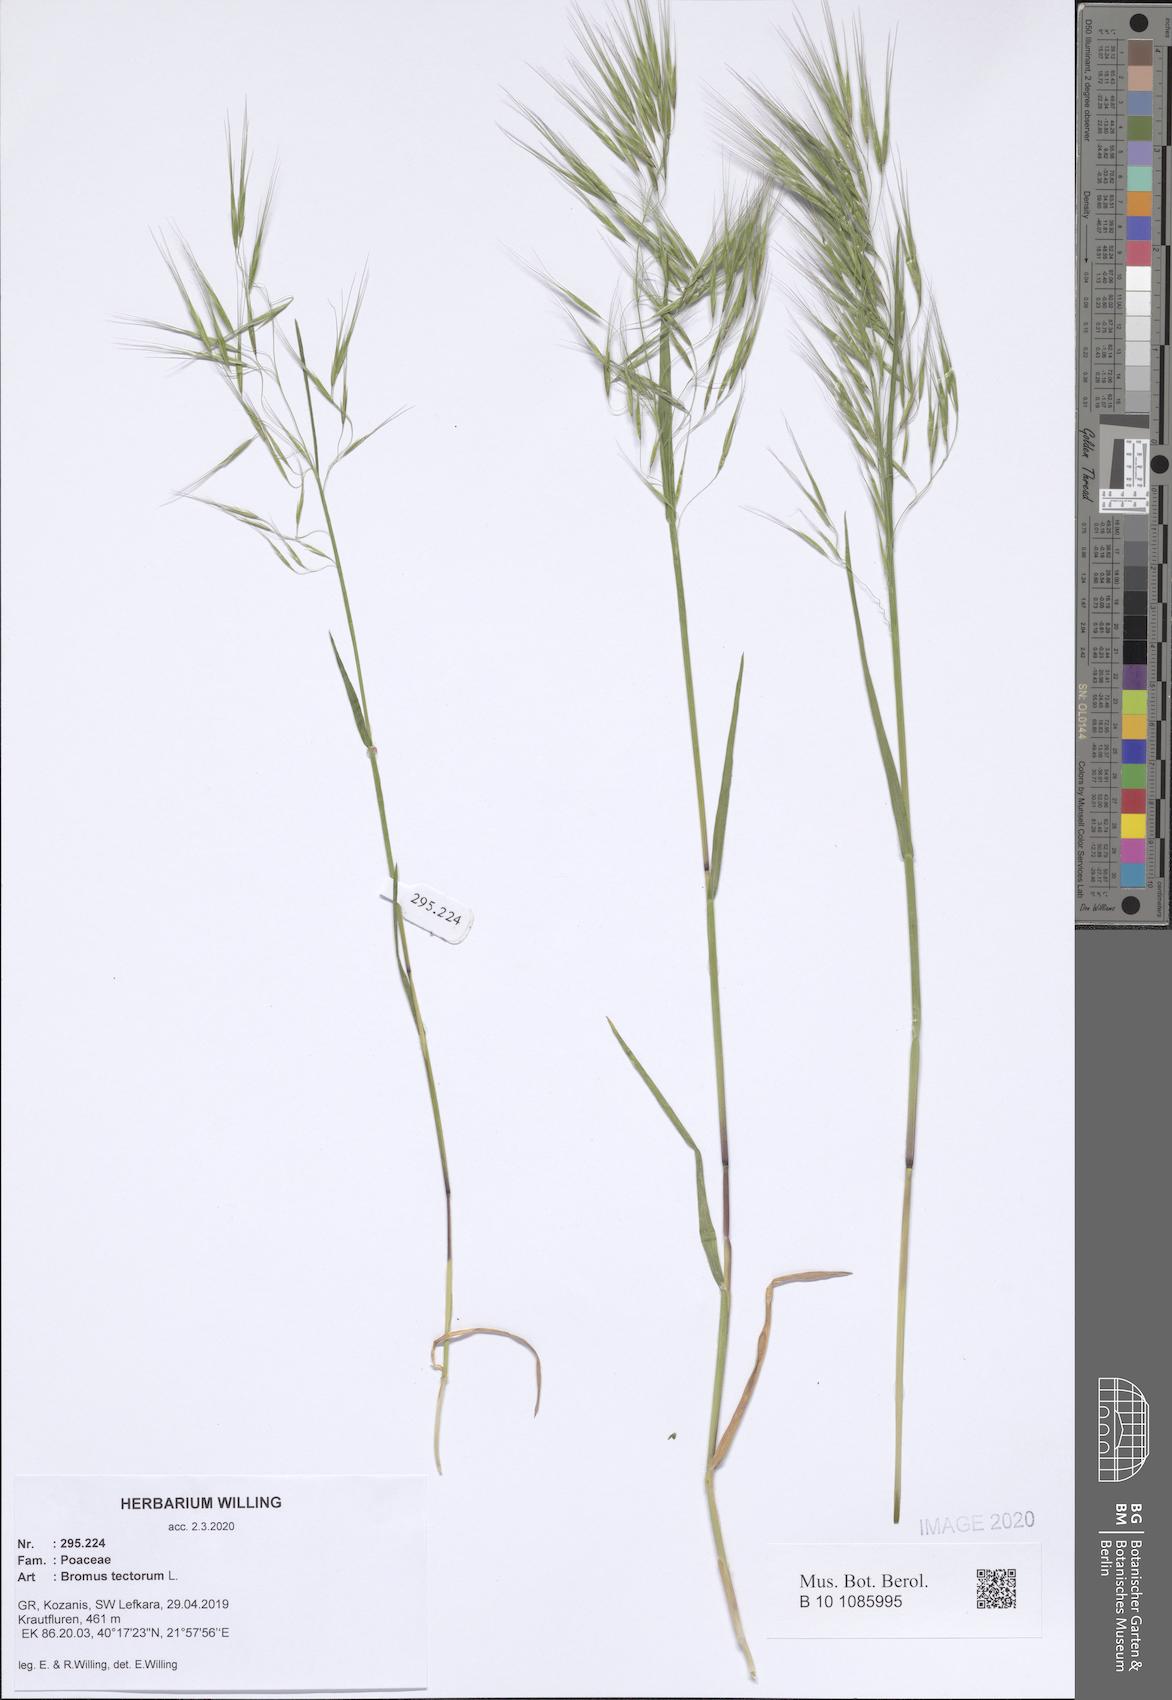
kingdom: Plantae
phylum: Tracheophyta
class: Liliopsida
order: Poales
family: Poaceae
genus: Bromus
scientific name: Bromus tectorum
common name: Cheatgrass
